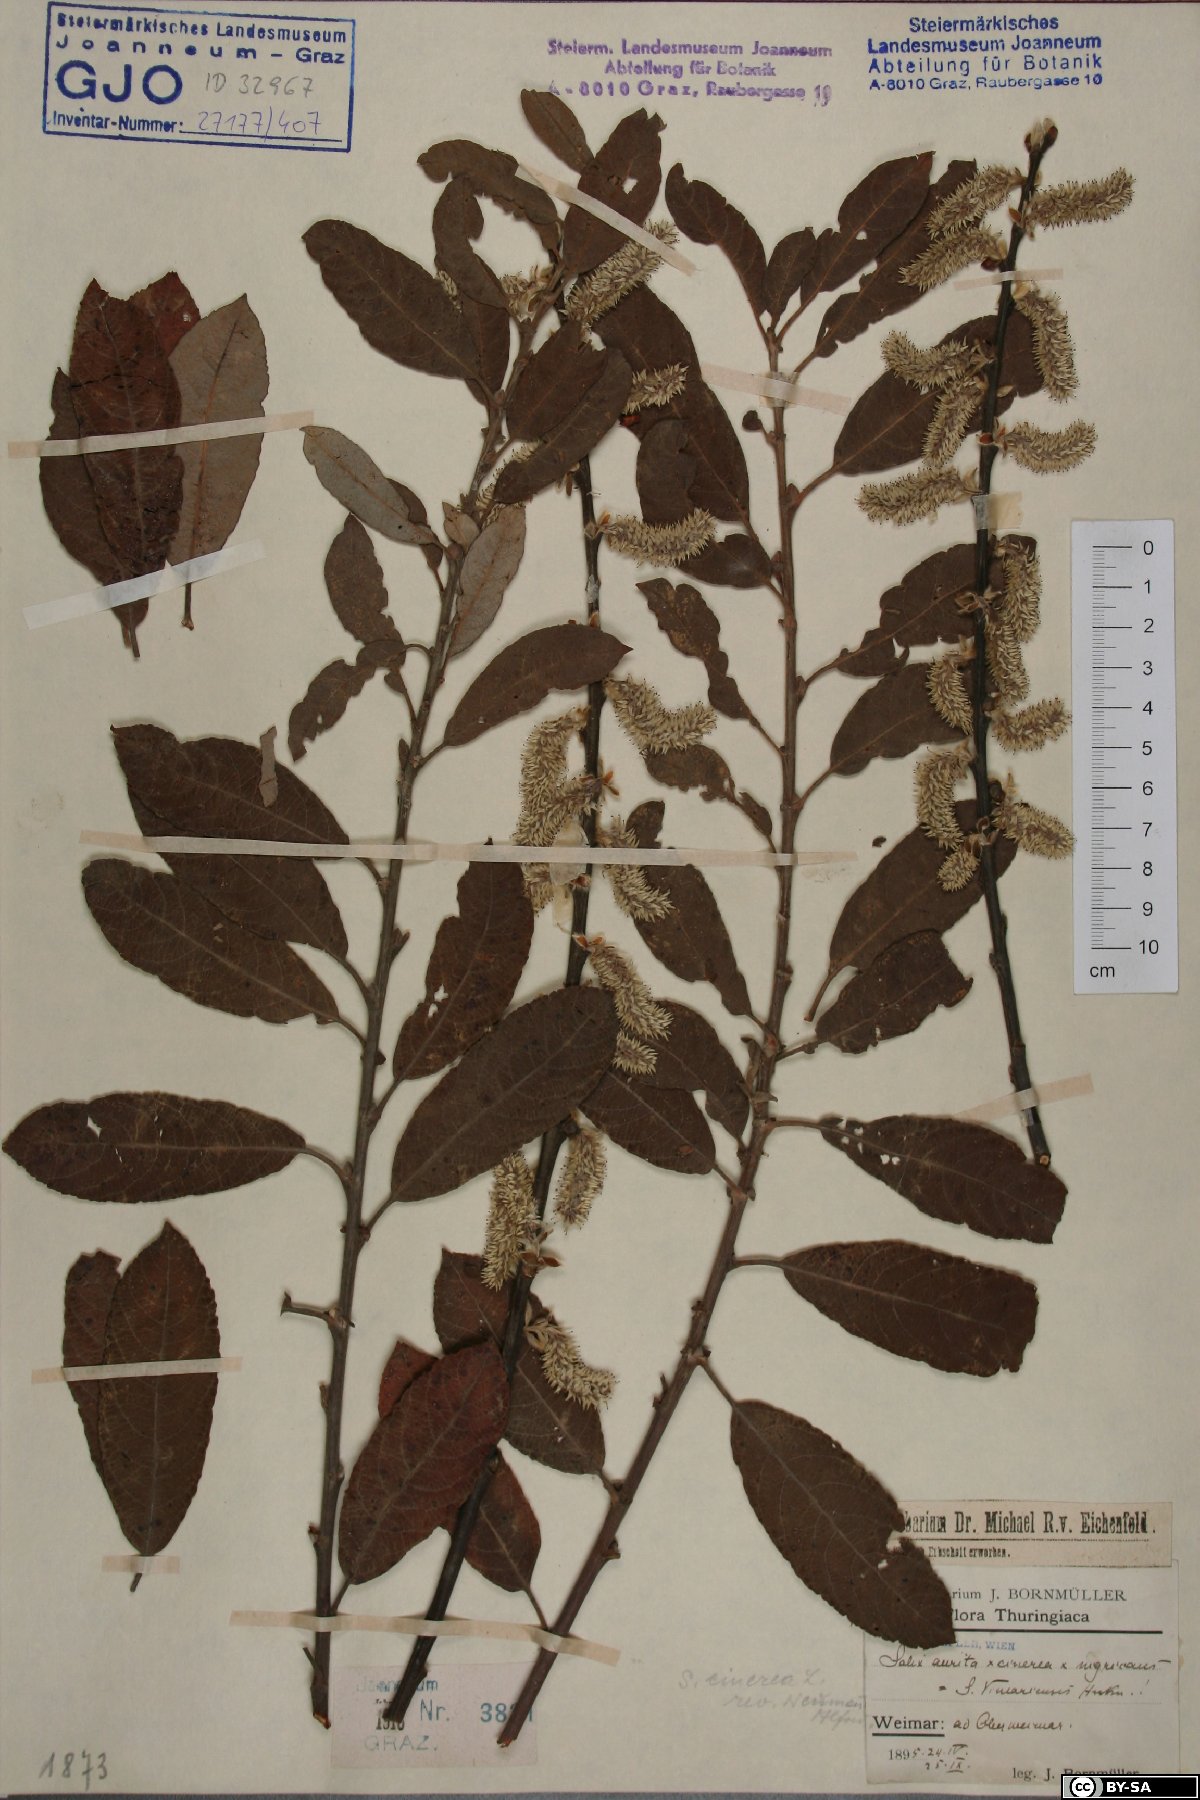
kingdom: Plantae
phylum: Tracheophyta
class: Magnoliopsida
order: Malpighiales
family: Salicaceae
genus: Salix
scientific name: Salix cinerea
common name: Common sallow
